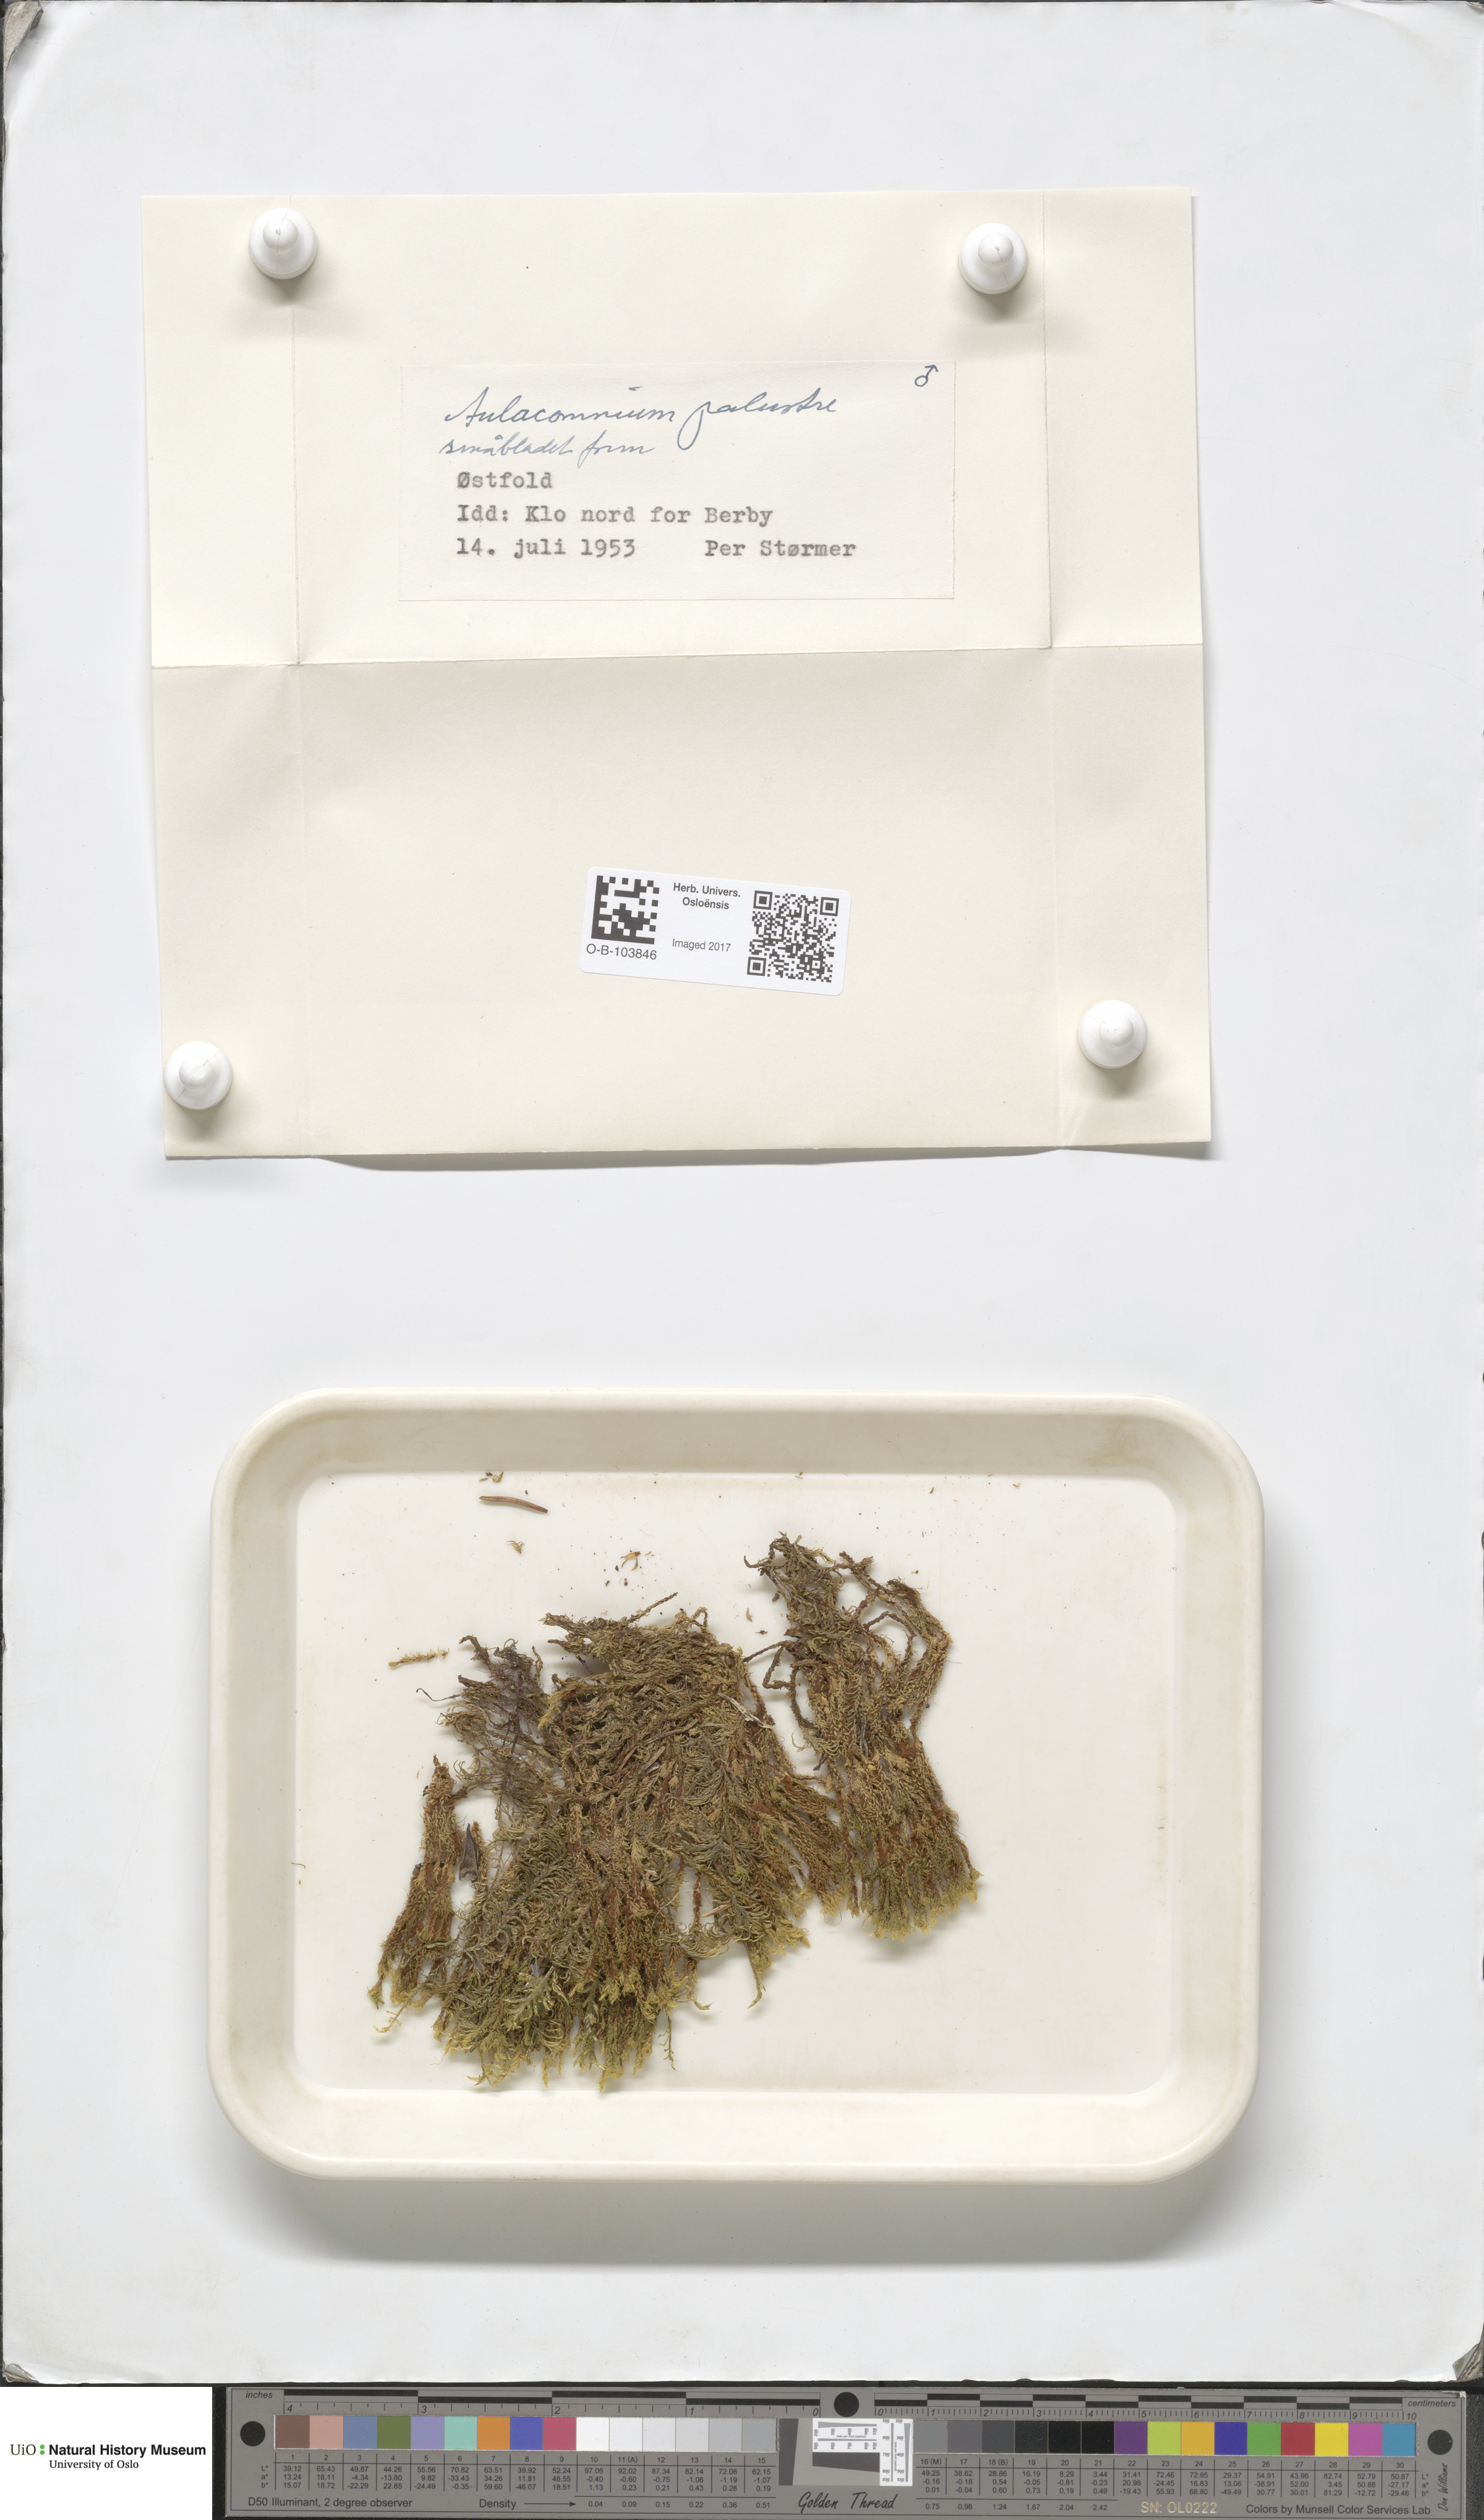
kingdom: Plantae
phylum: Bryophyta
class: Bryopsida
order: Aulacomniales
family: Aulacomniaceae
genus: Aulacomnium
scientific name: Aulacomnium palustre
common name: Bog groove-moss
